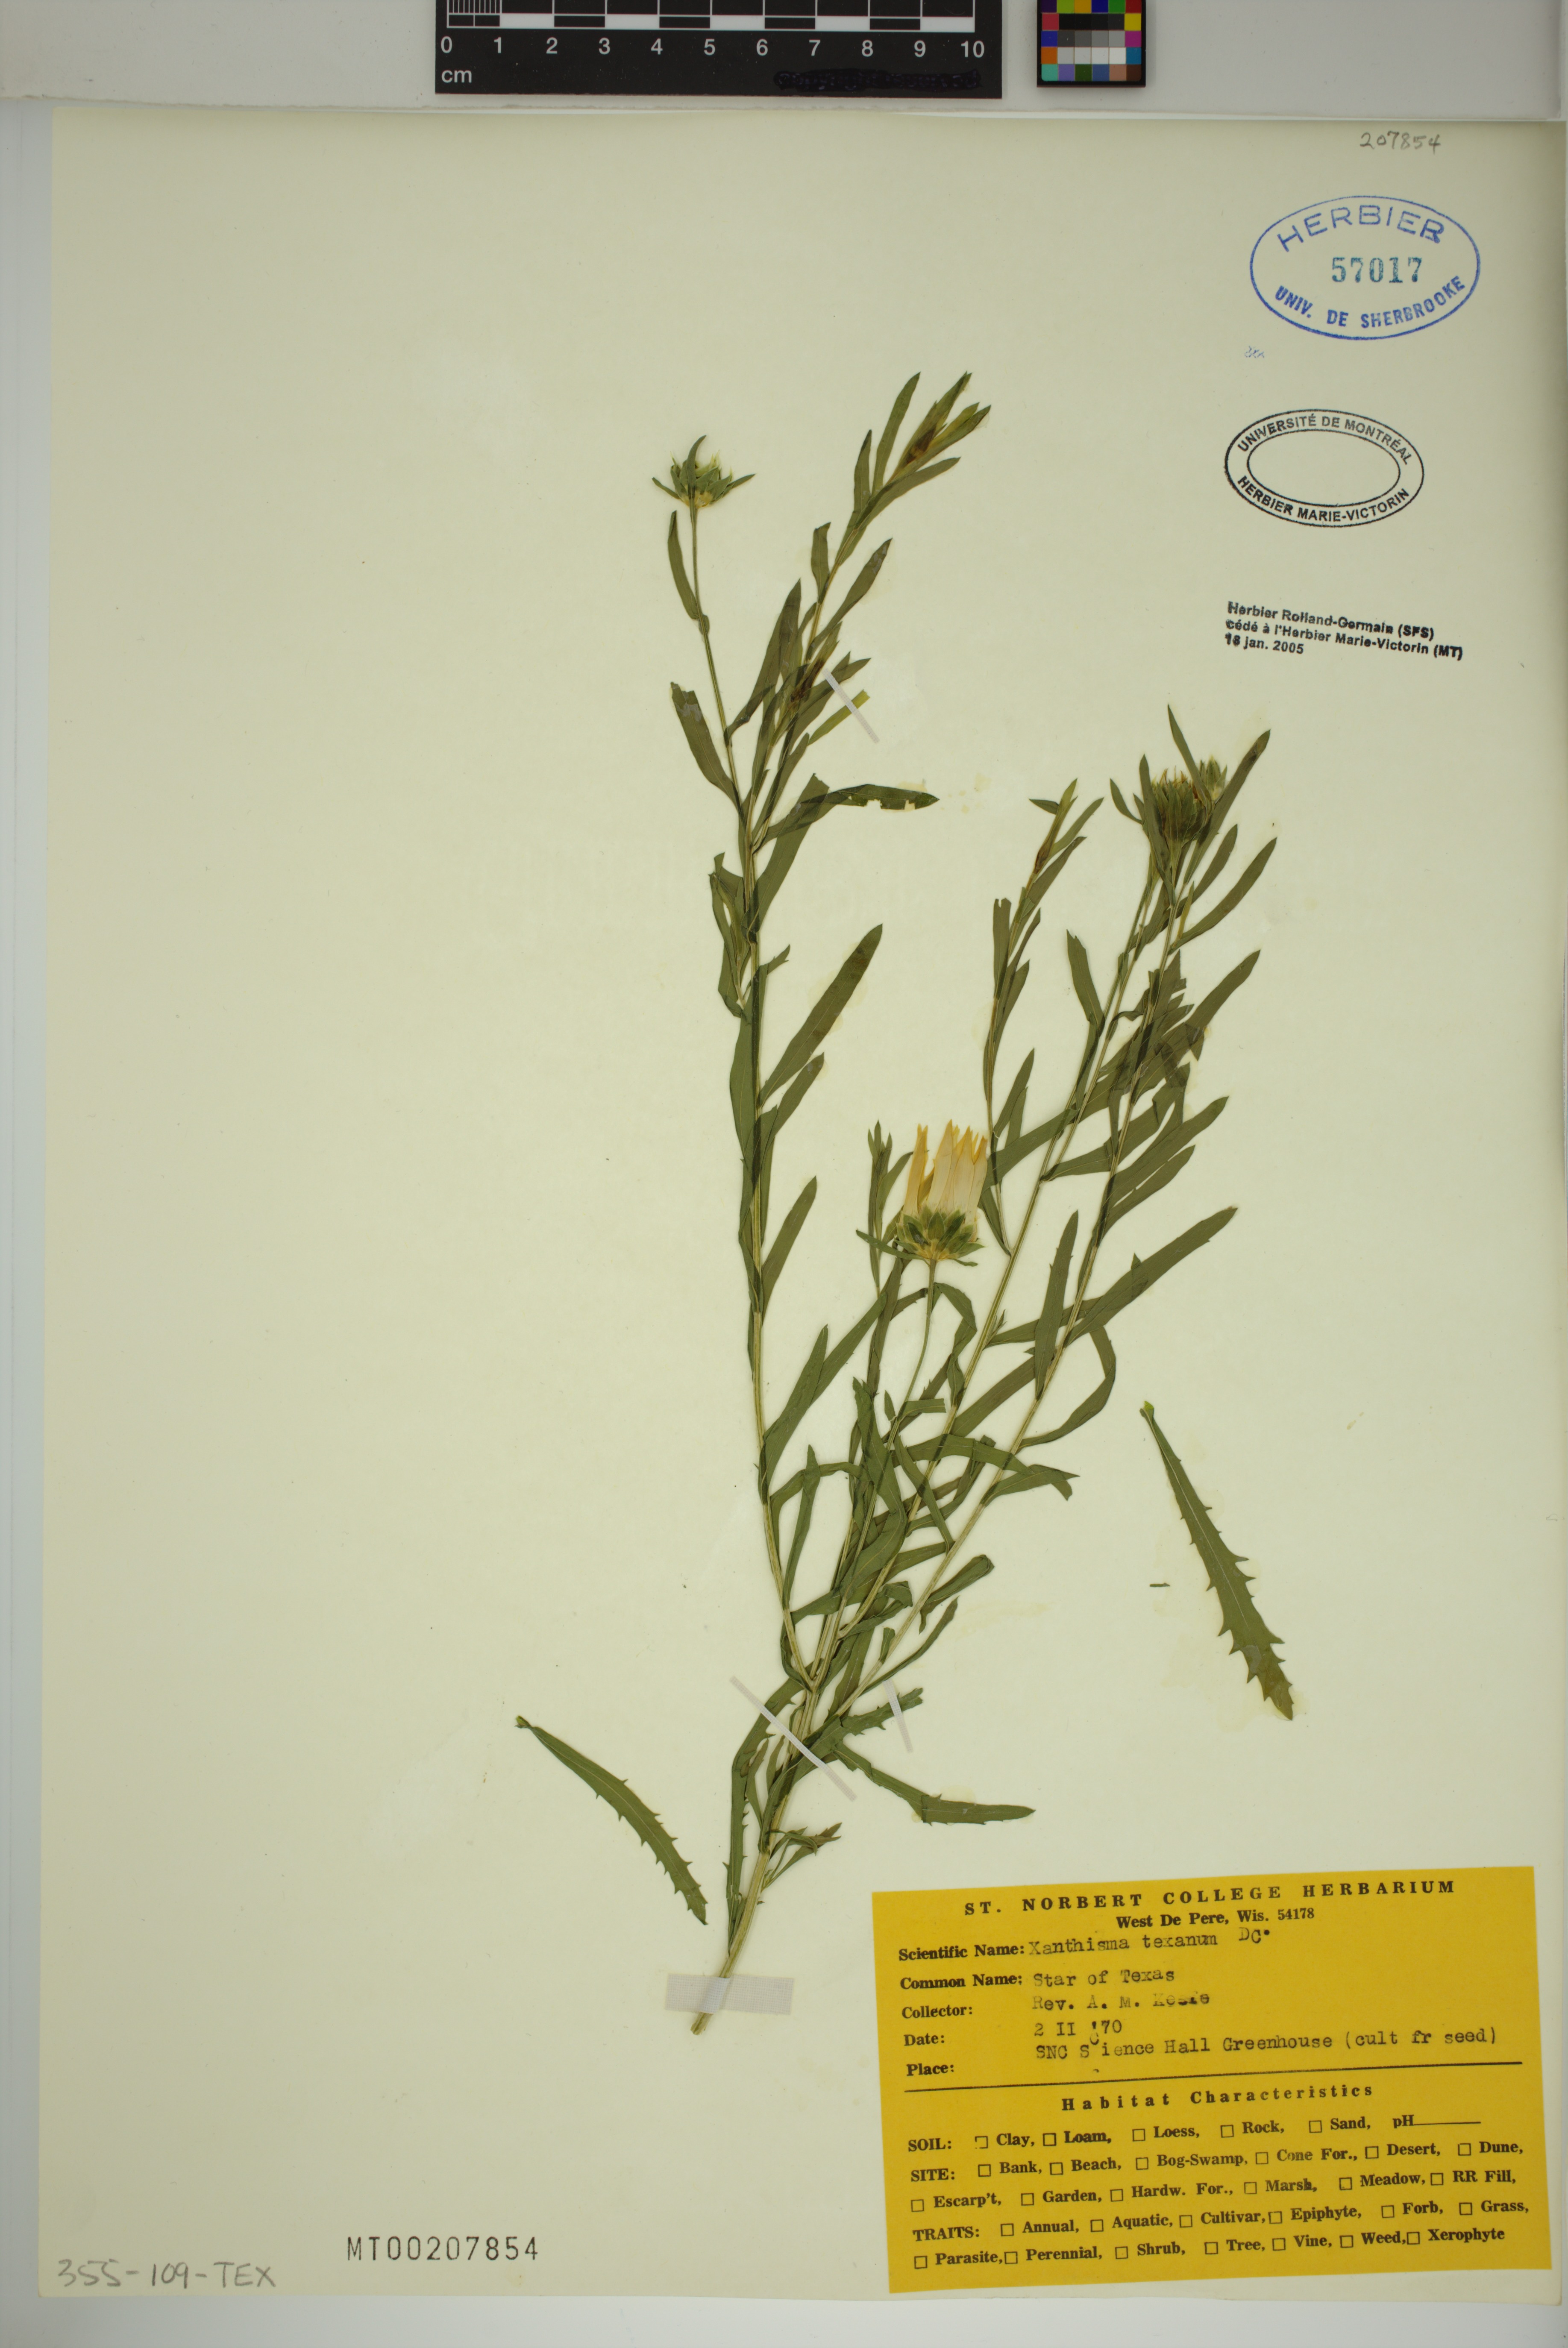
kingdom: Plantae
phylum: Tracheophyta
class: Magnoliopsida
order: Asterales
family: Asteraceae
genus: Xanthisma
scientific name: Xanthisma texanum
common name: Texas sleepy daisy
